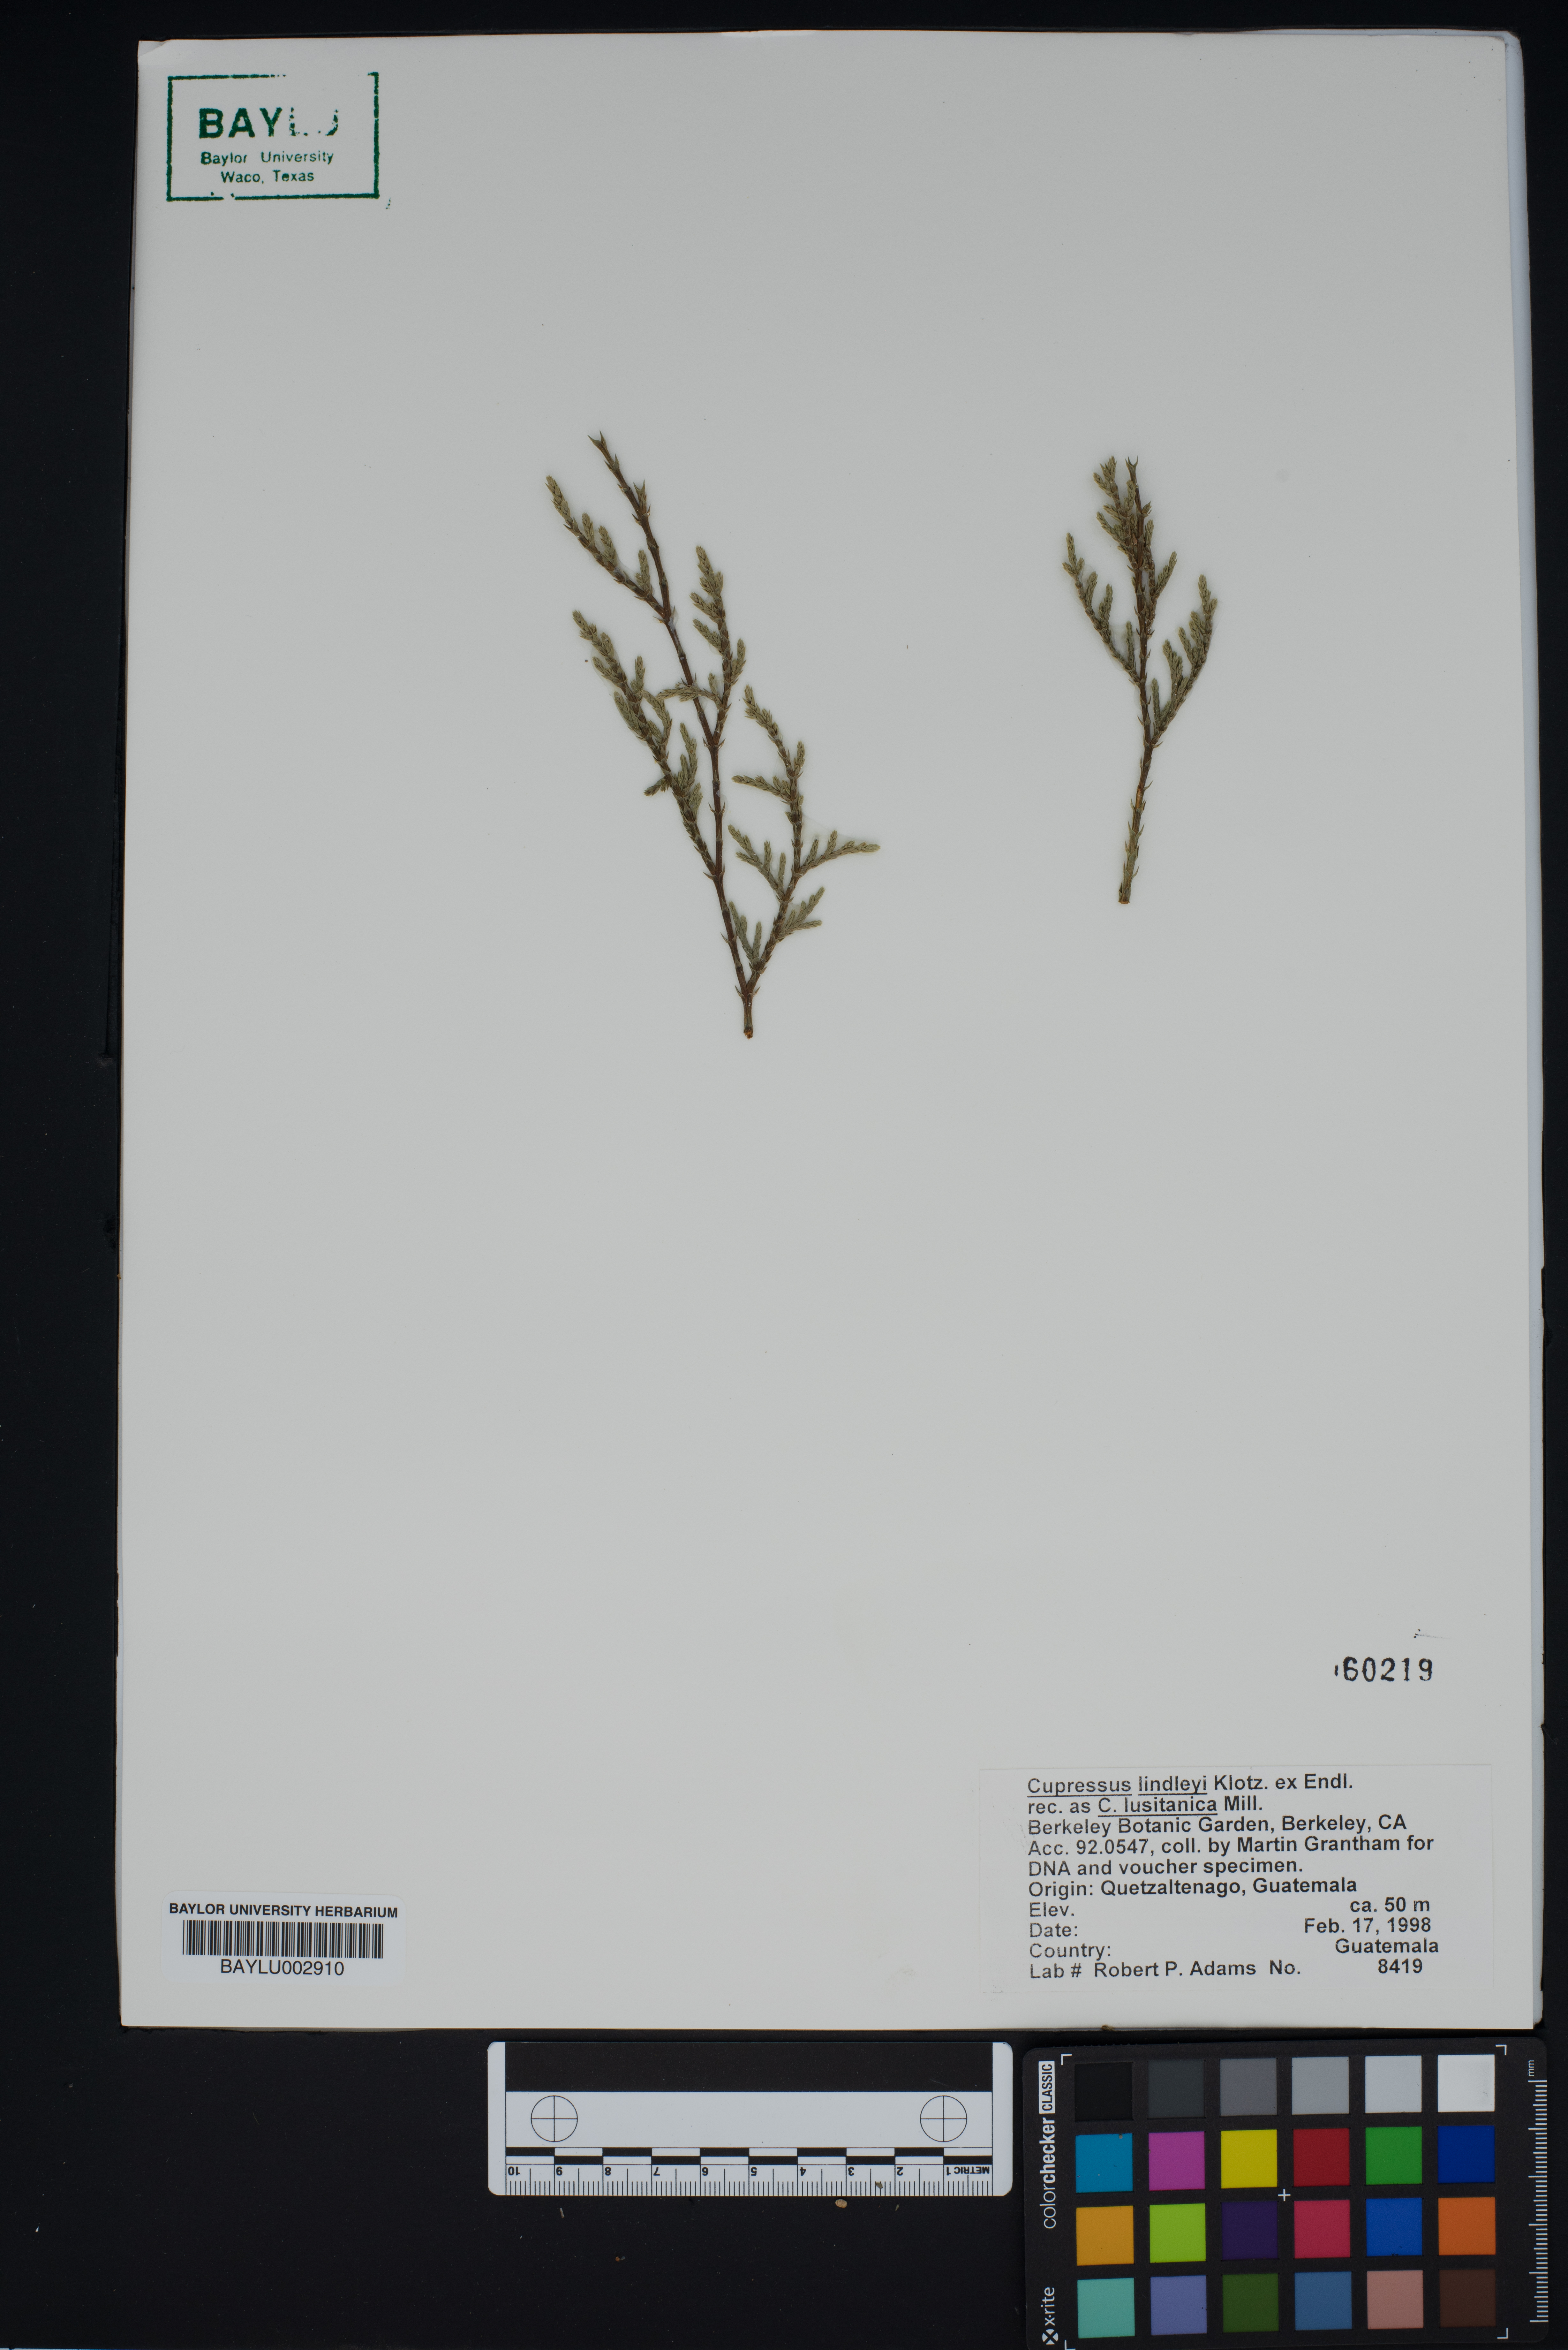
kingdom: Plantae
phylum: Tracheophyta
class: Pinopsida
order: Pinales
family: Cupressaceae
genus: Cupressus
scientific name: Cupressus lusitanica
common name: Mexican cypress
